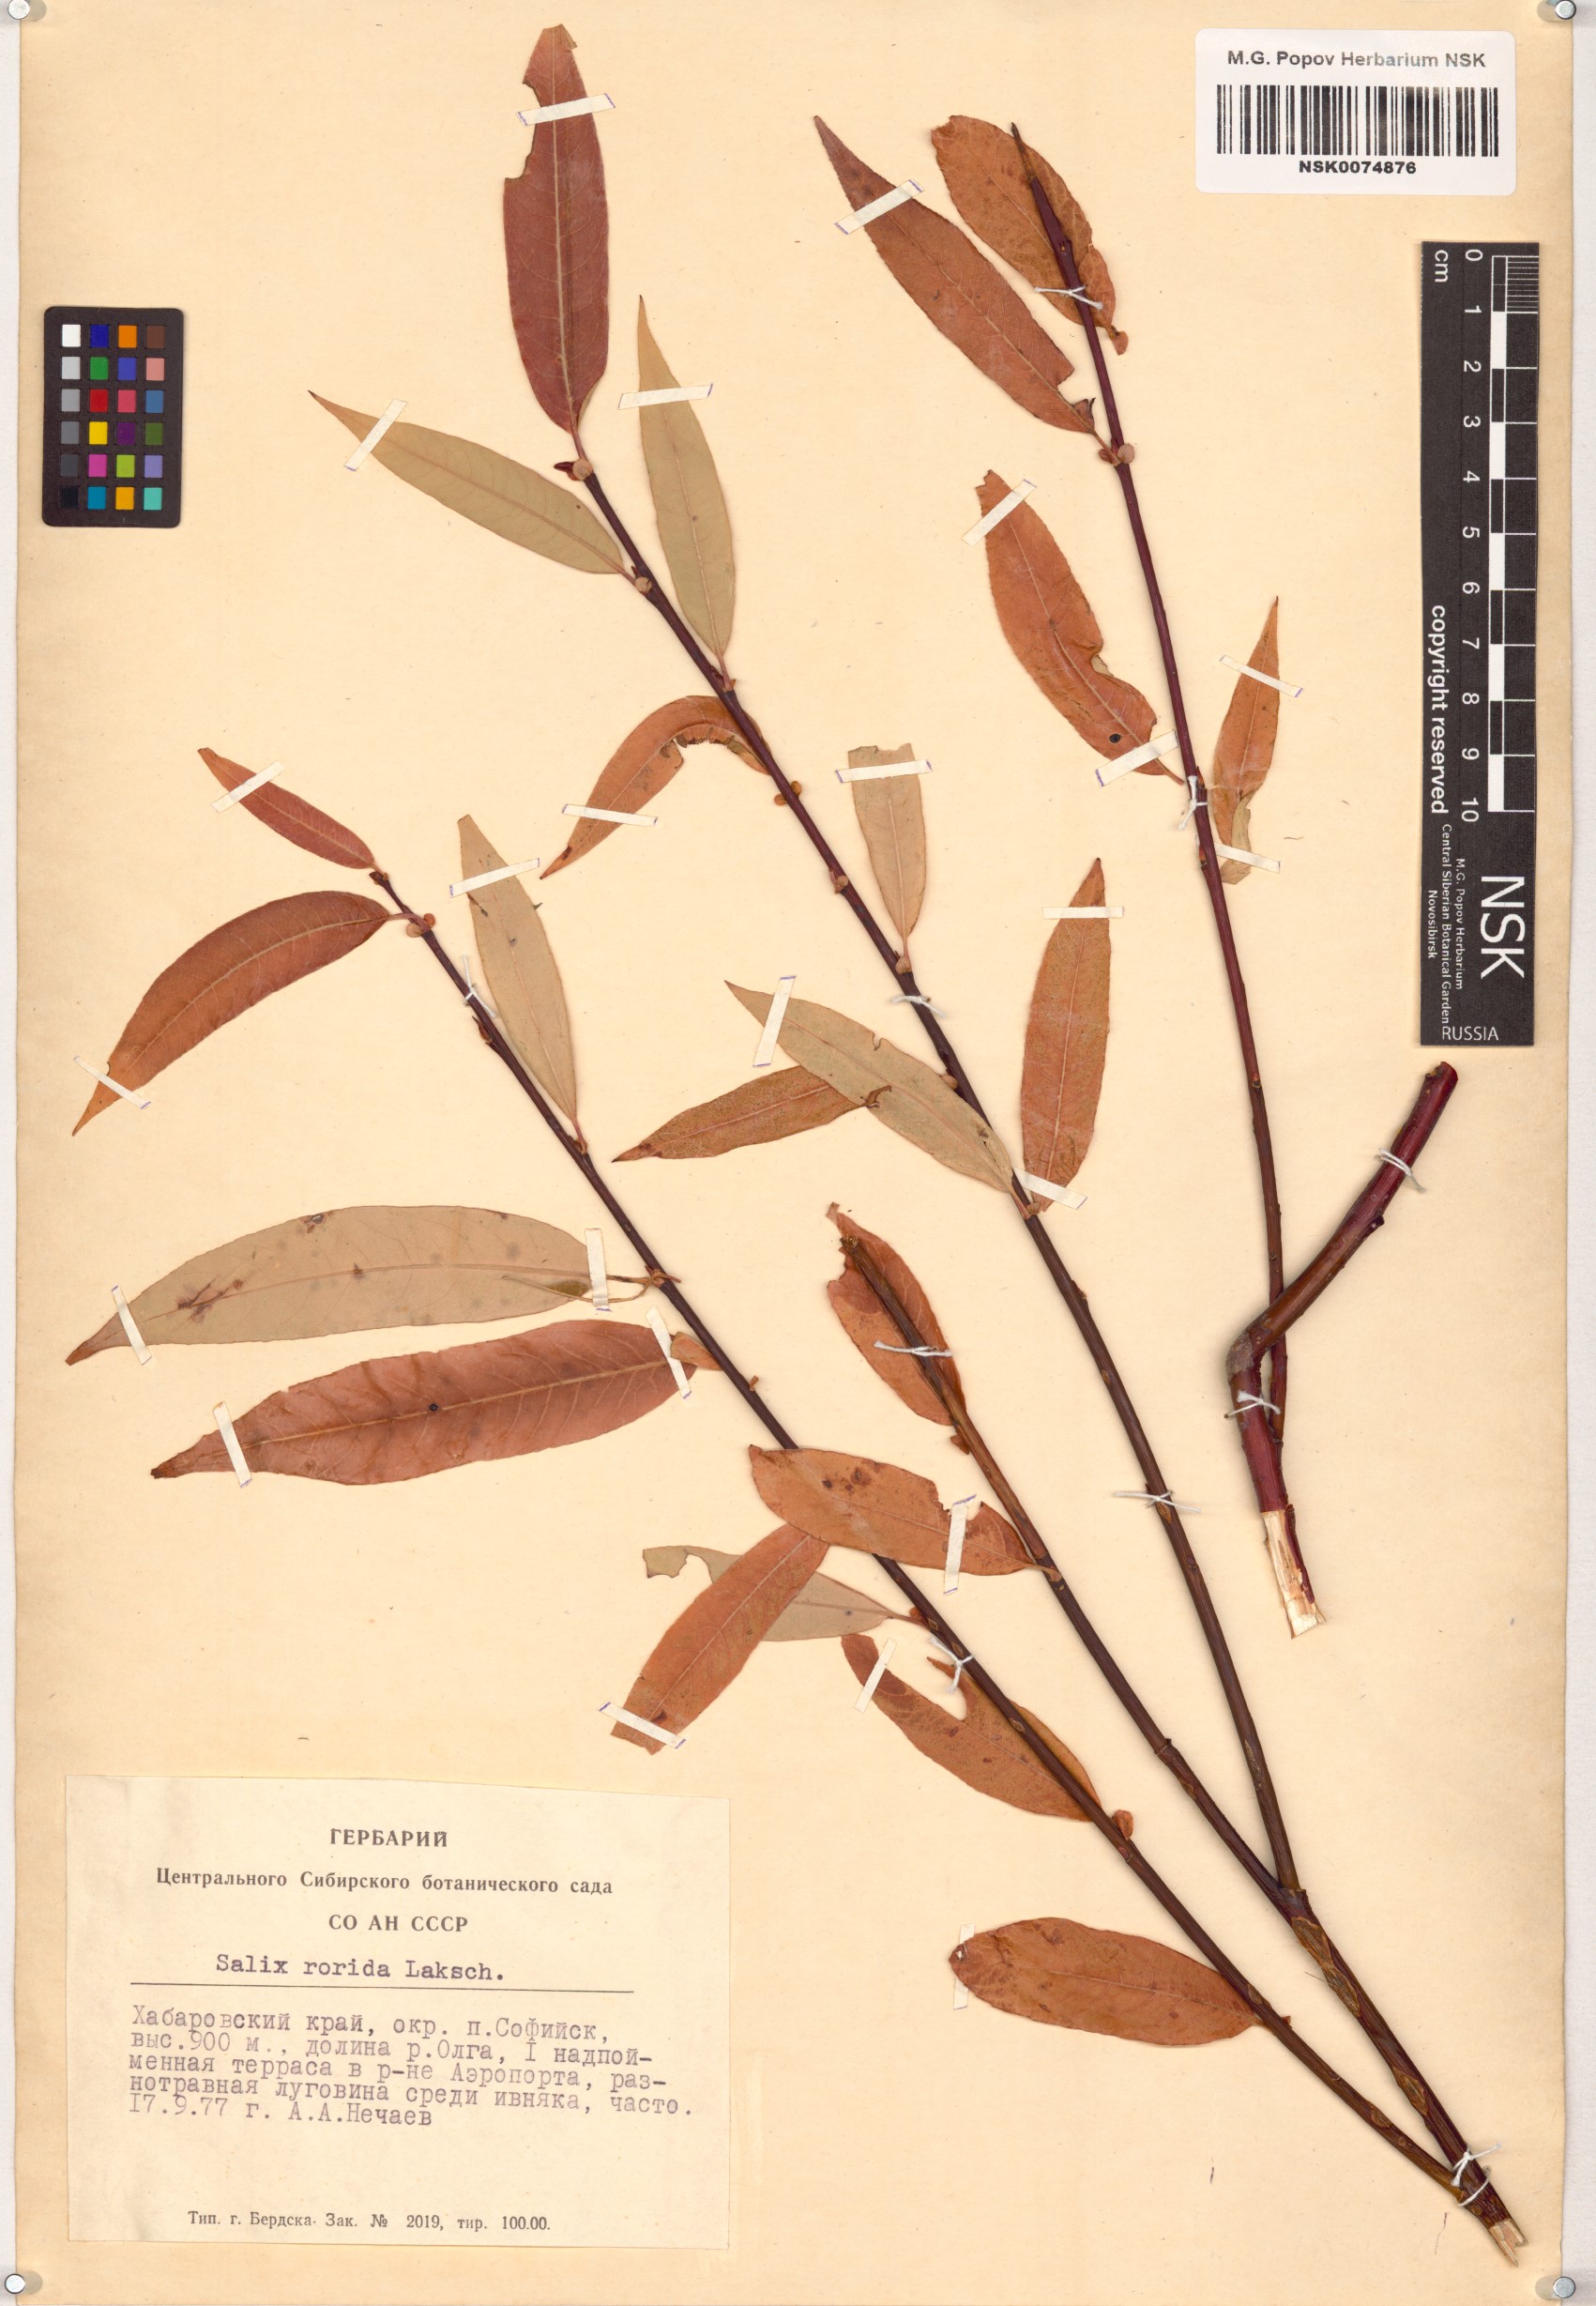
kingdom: Plantae
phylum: Tracheophyta
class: Magnoliopsida
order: Malpighiales
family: Salicaceae
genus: Salix
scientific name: Salix rorida
